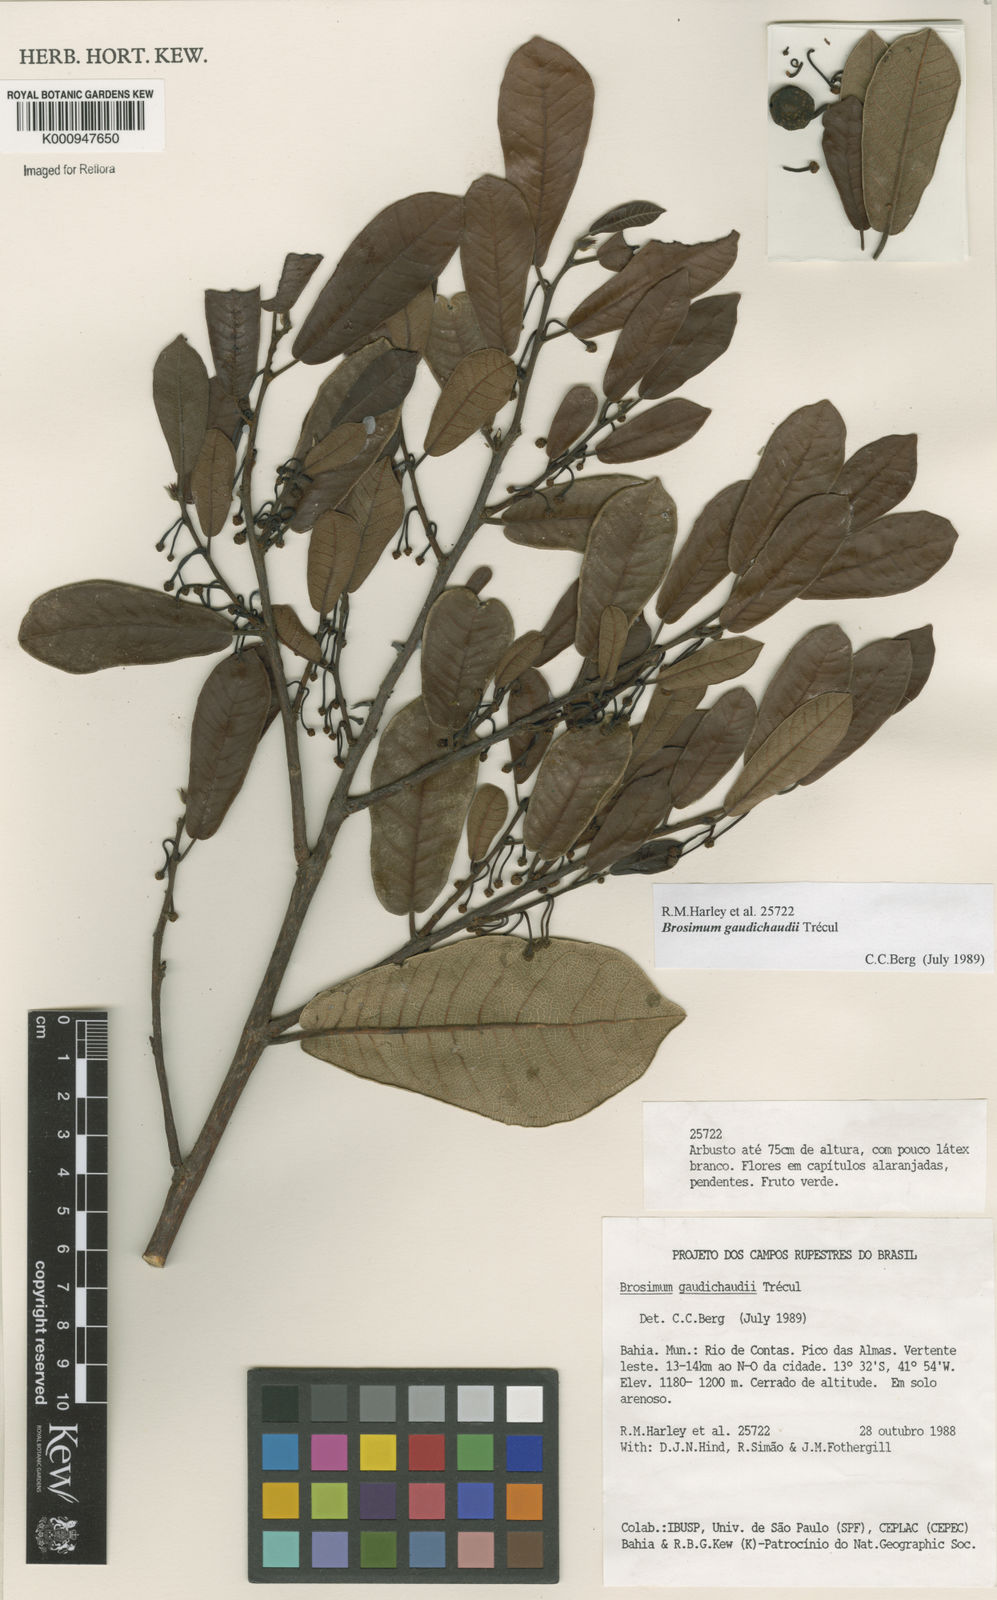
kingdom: Plantae
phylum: Tracheophyta
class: Magnoliopsida
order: Rosales
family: Moraceae
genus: Brosimum
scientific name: Brosimum
